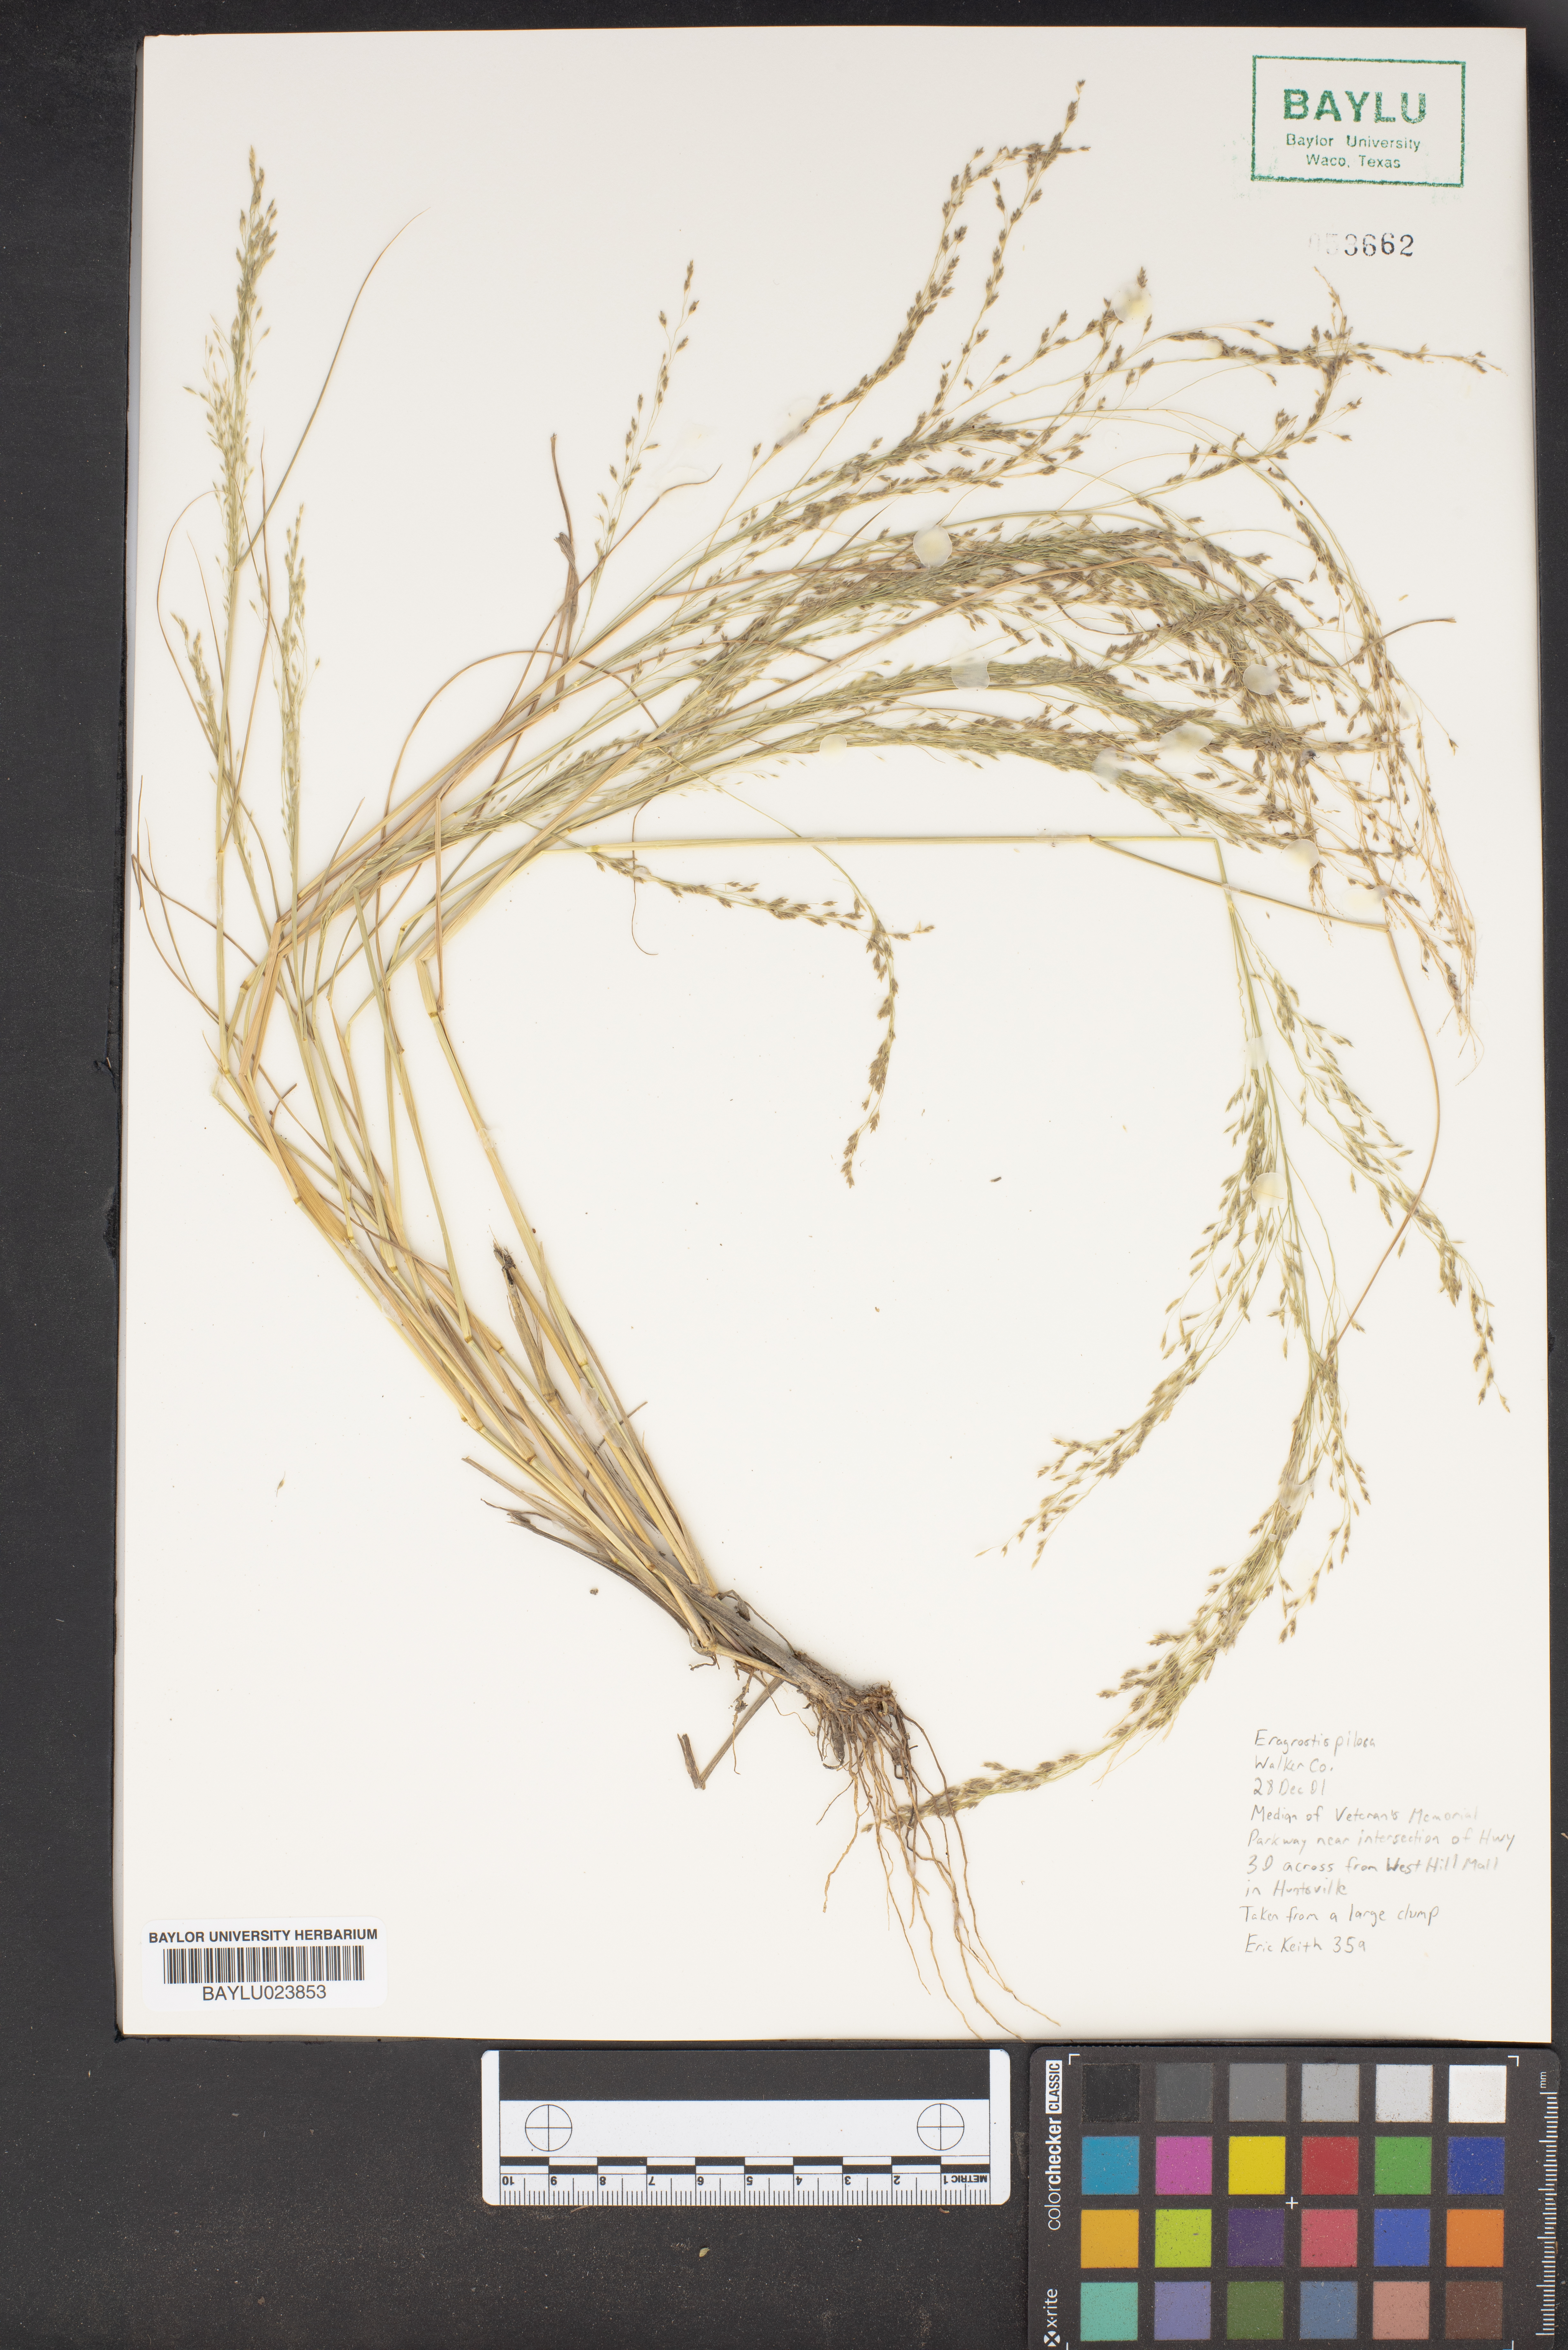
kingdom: Plantae
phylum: Tracheophyta
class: Liliopsida
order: Poales
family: Poaceae
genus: Eragrostis
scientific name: Eragrostis pilosa
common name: Indian lovegrass
